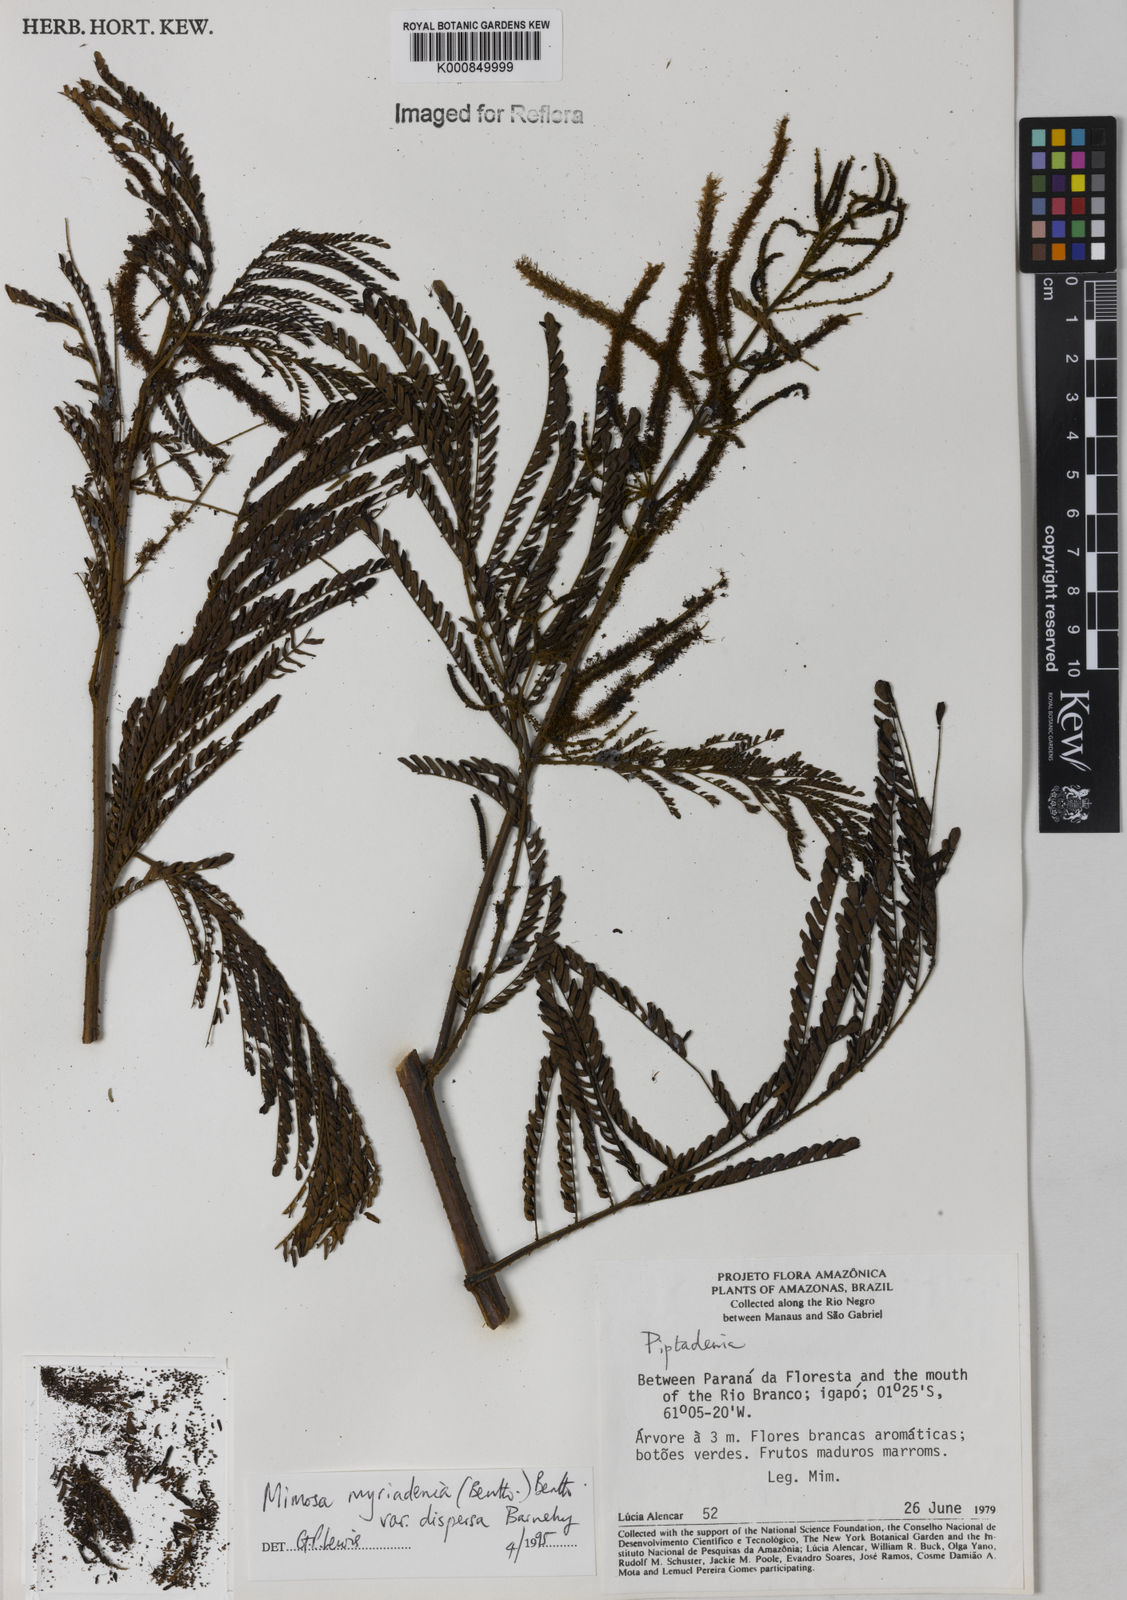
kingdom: Plantae
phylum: Tracheophyta
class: Magnoliopsida
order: Fabales
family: Fabaceae
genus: Mimosa
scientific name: Mimosa myriadenia
